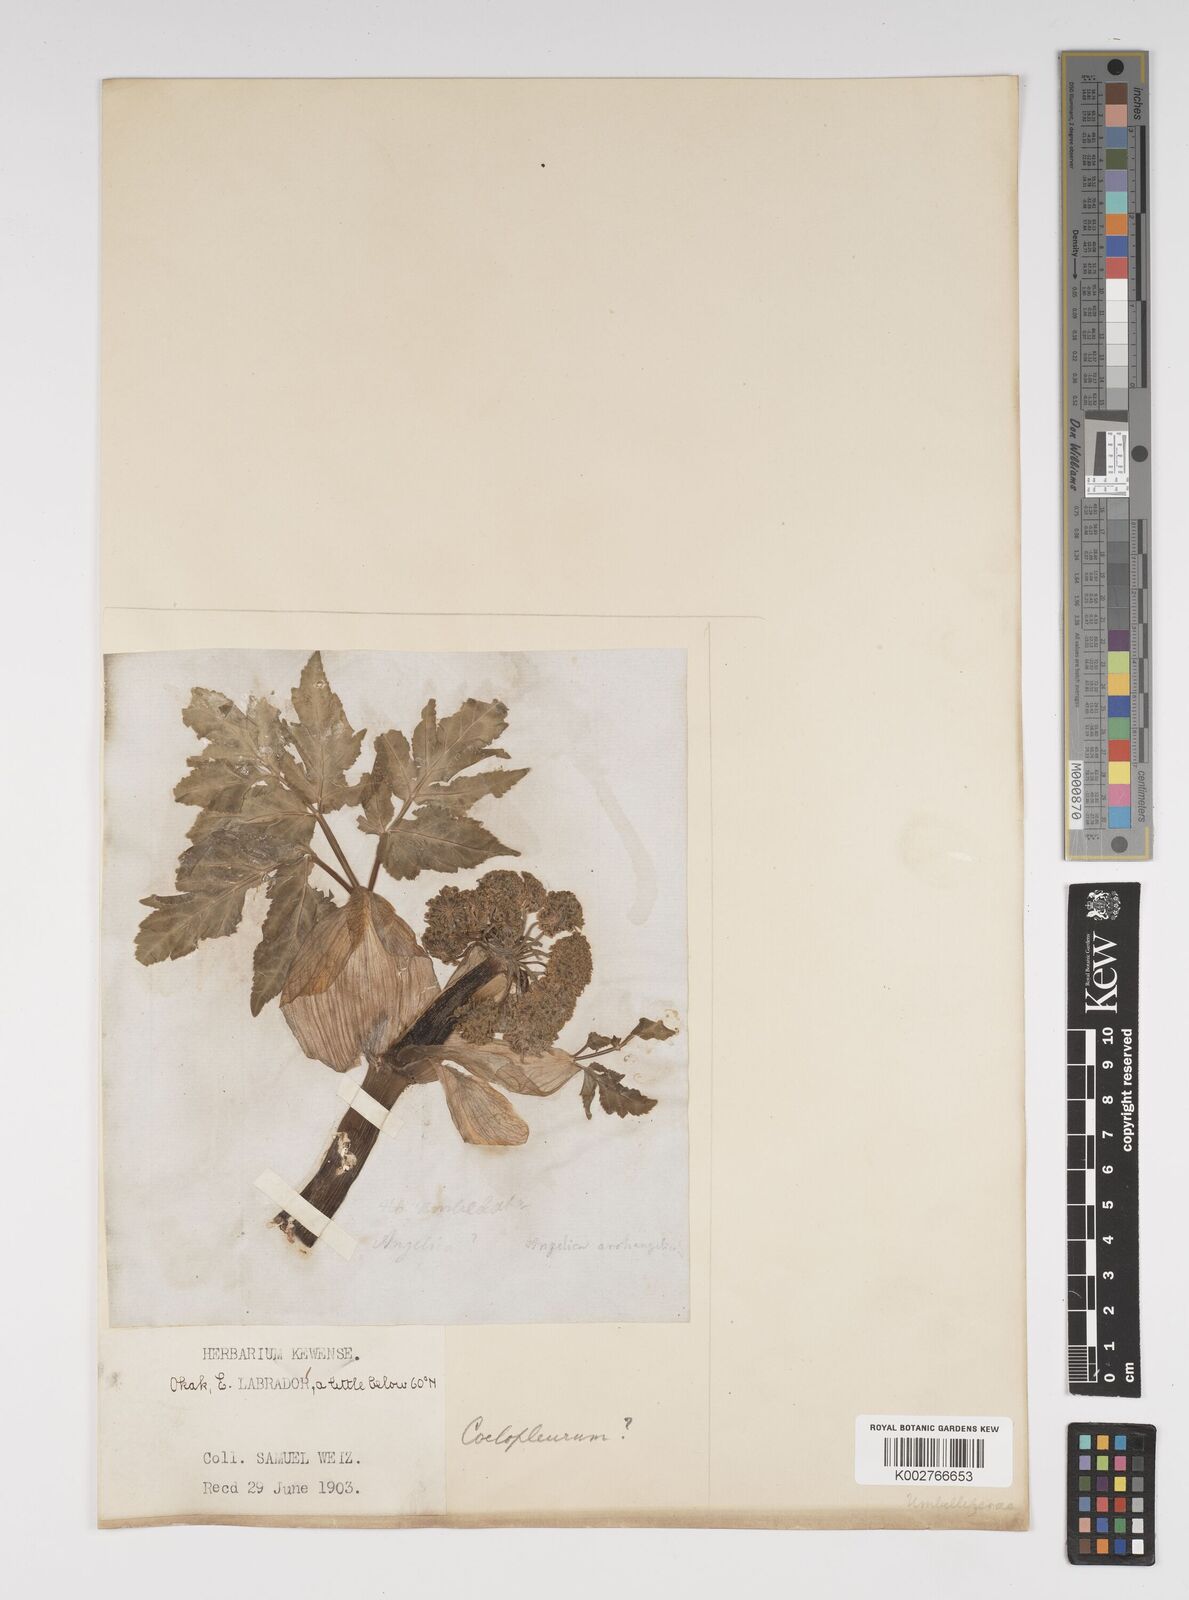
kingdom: Plantae
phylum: Tracheophyta
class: Magnoliopsida
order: Apiales
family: Apiaceae
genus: Angelica
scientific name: Angelica
